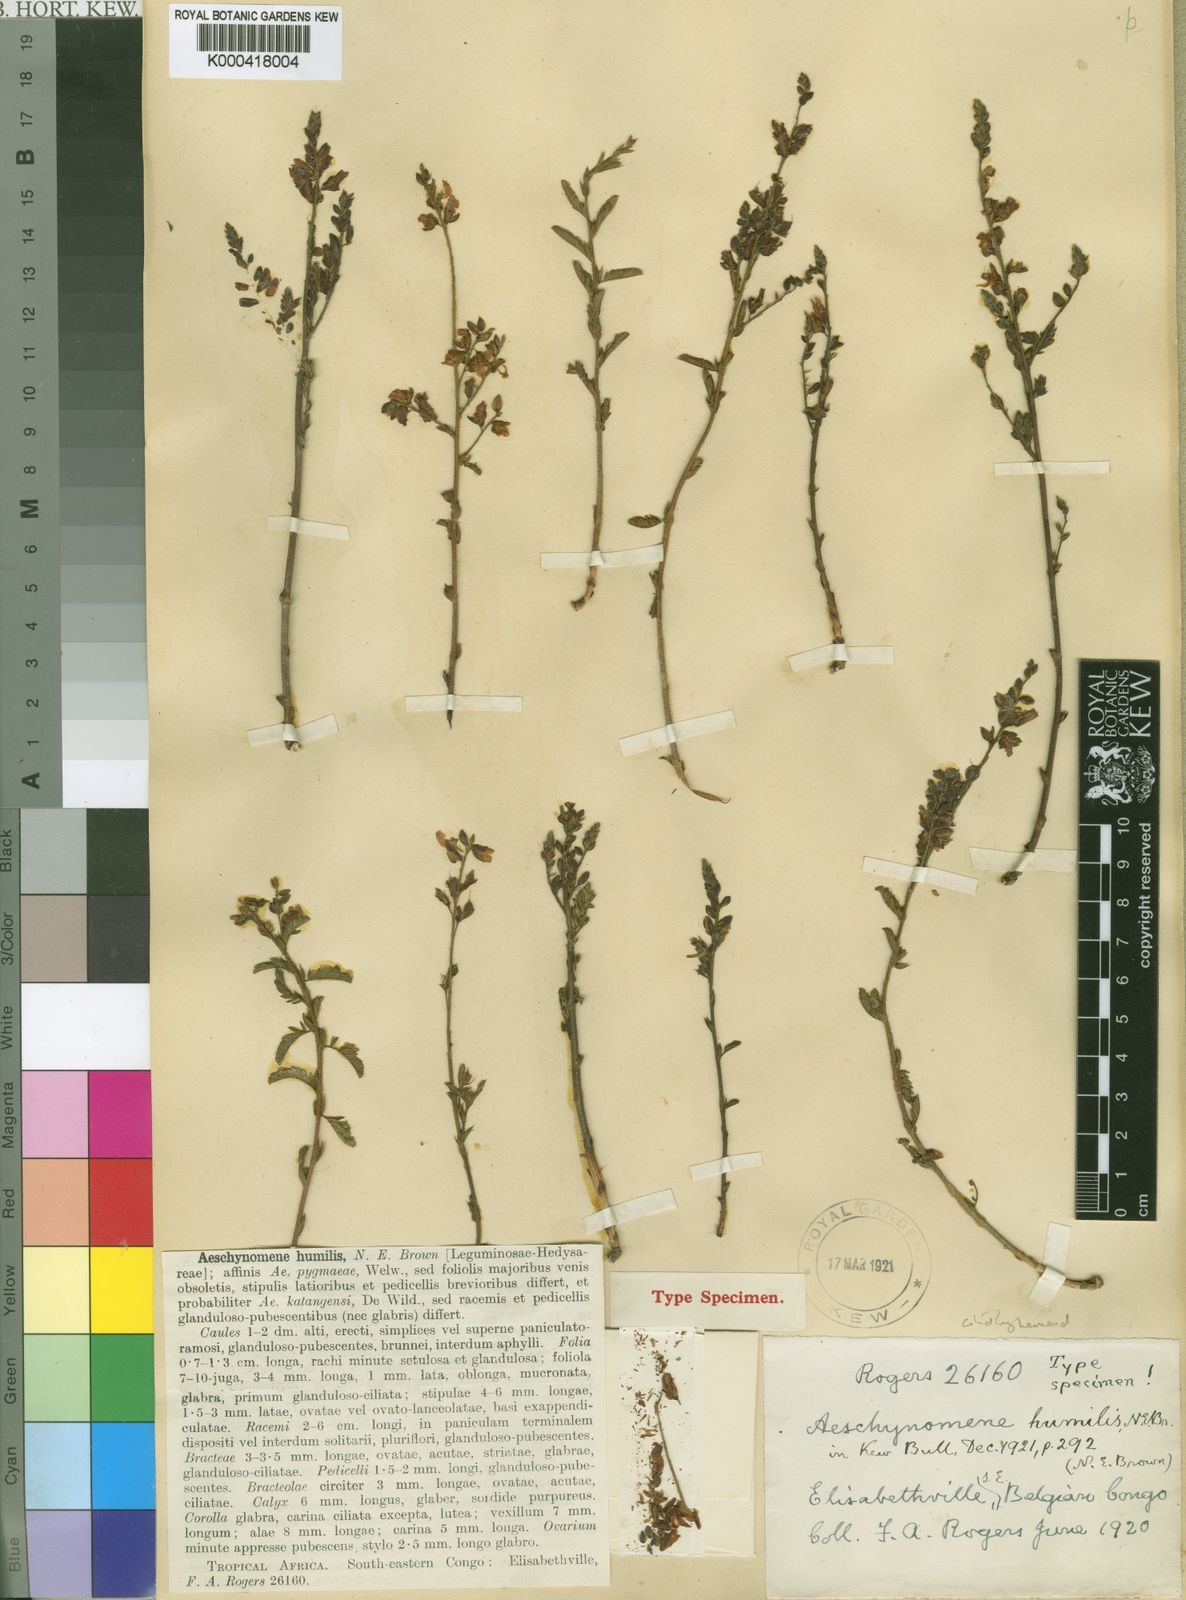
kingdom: Plantae
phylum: Tracheophyta
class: Magnoliopsida
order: Fabales
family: Fabaceae
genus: Aeschynomene
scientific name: Aeschynomene pygmaea
